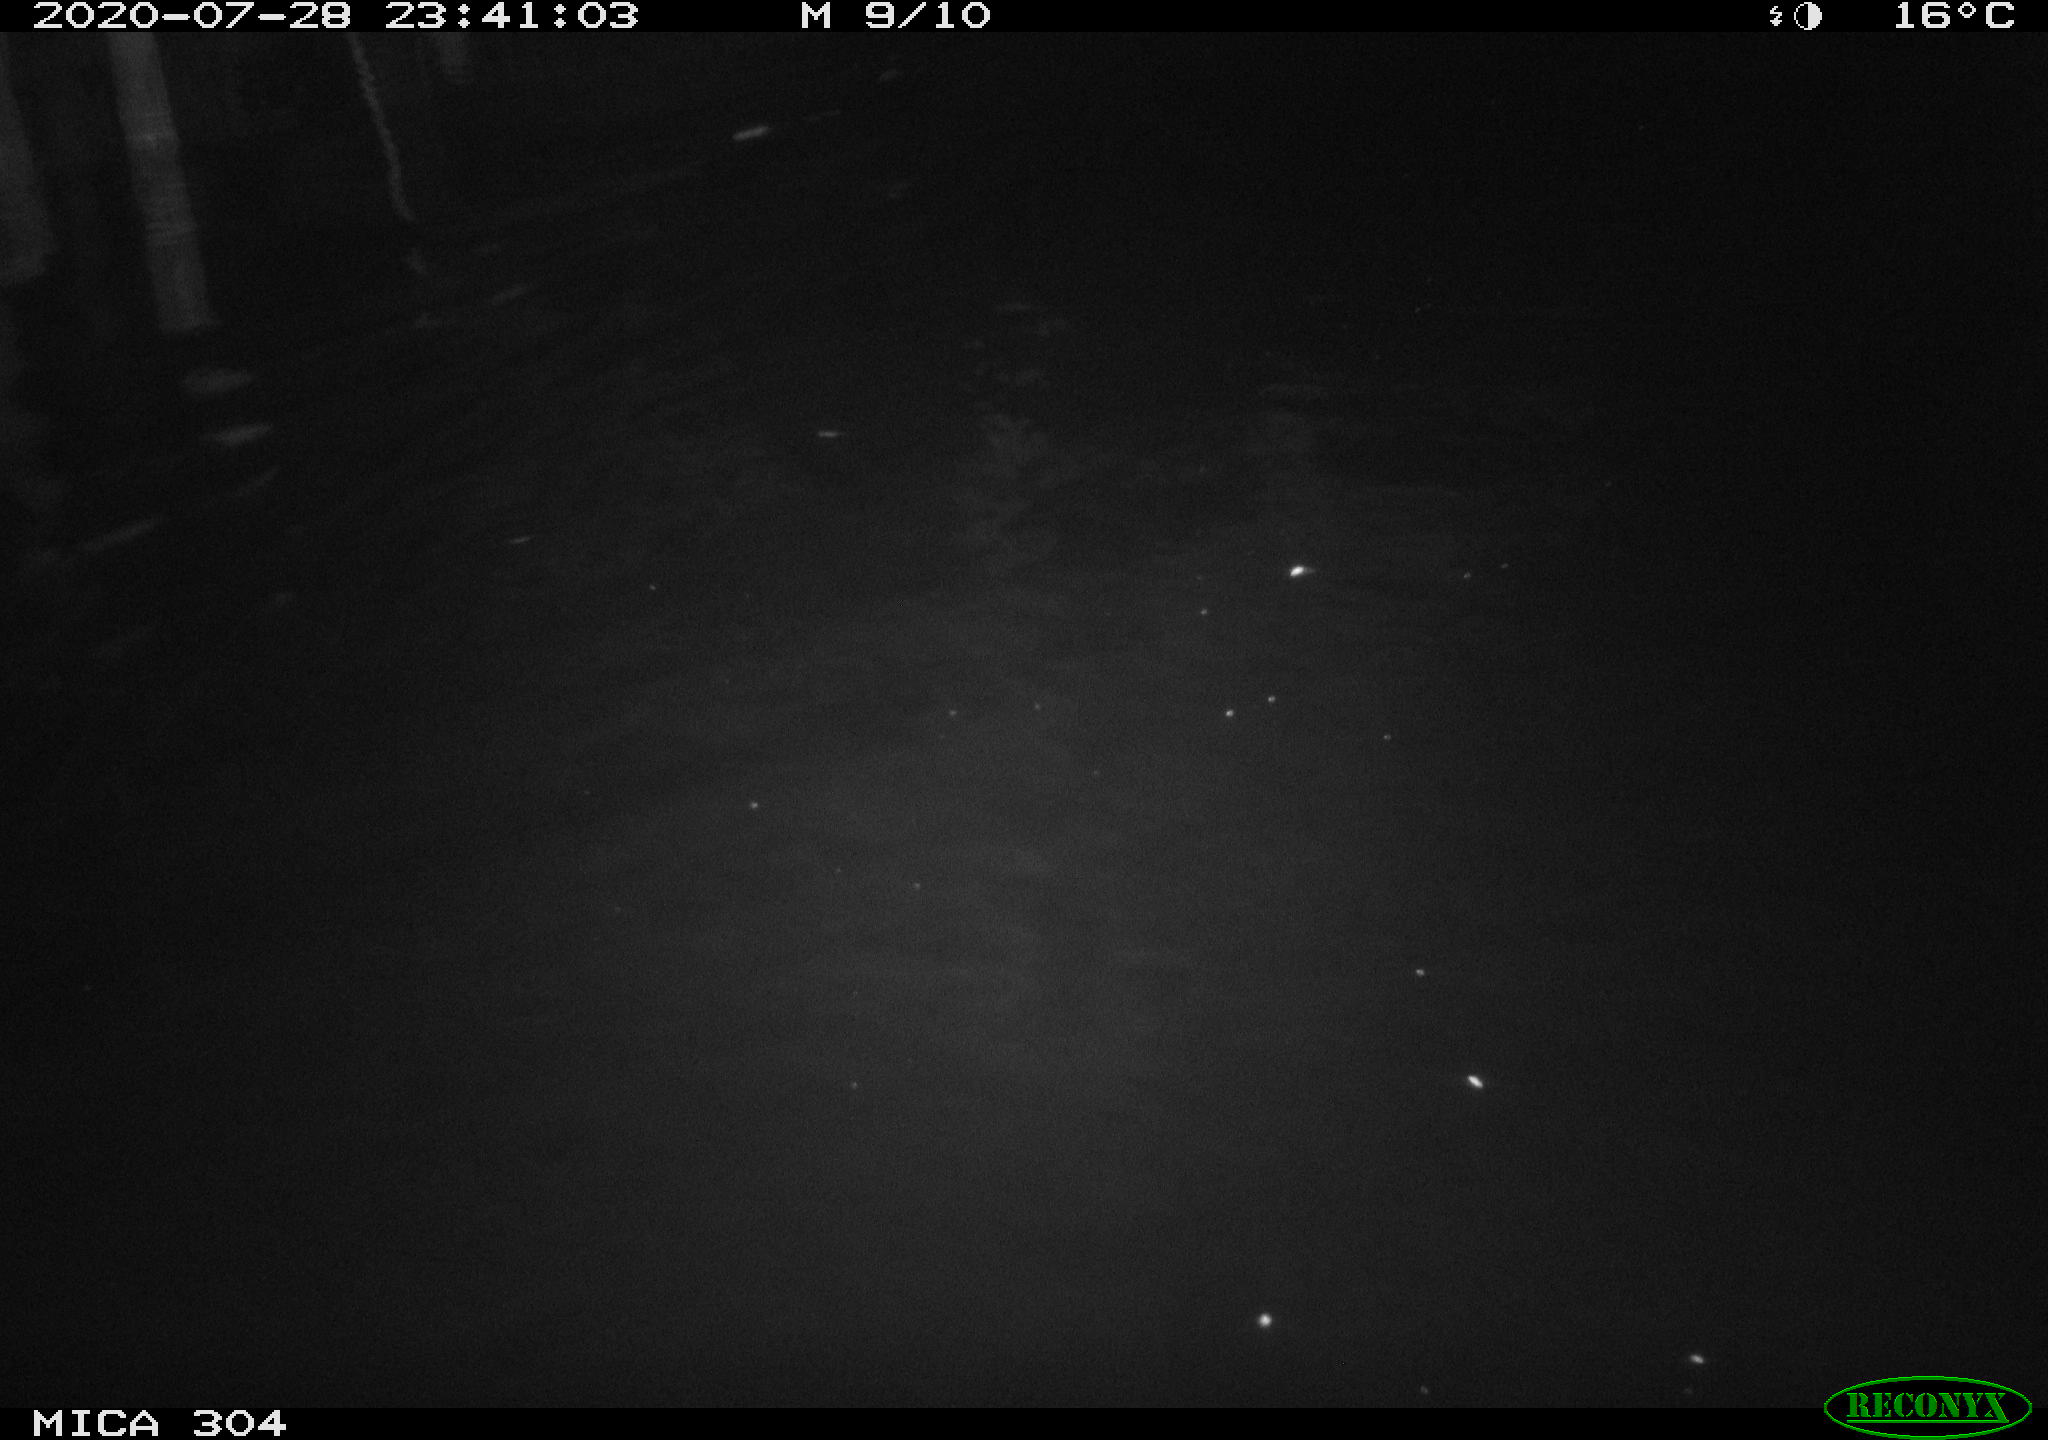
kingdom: Animalia
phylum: Chordata
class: Mammalia
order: Rodentia
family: Cricetidae
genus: Ondatra
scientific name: Ondatra zibethicus
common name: Muskrat
